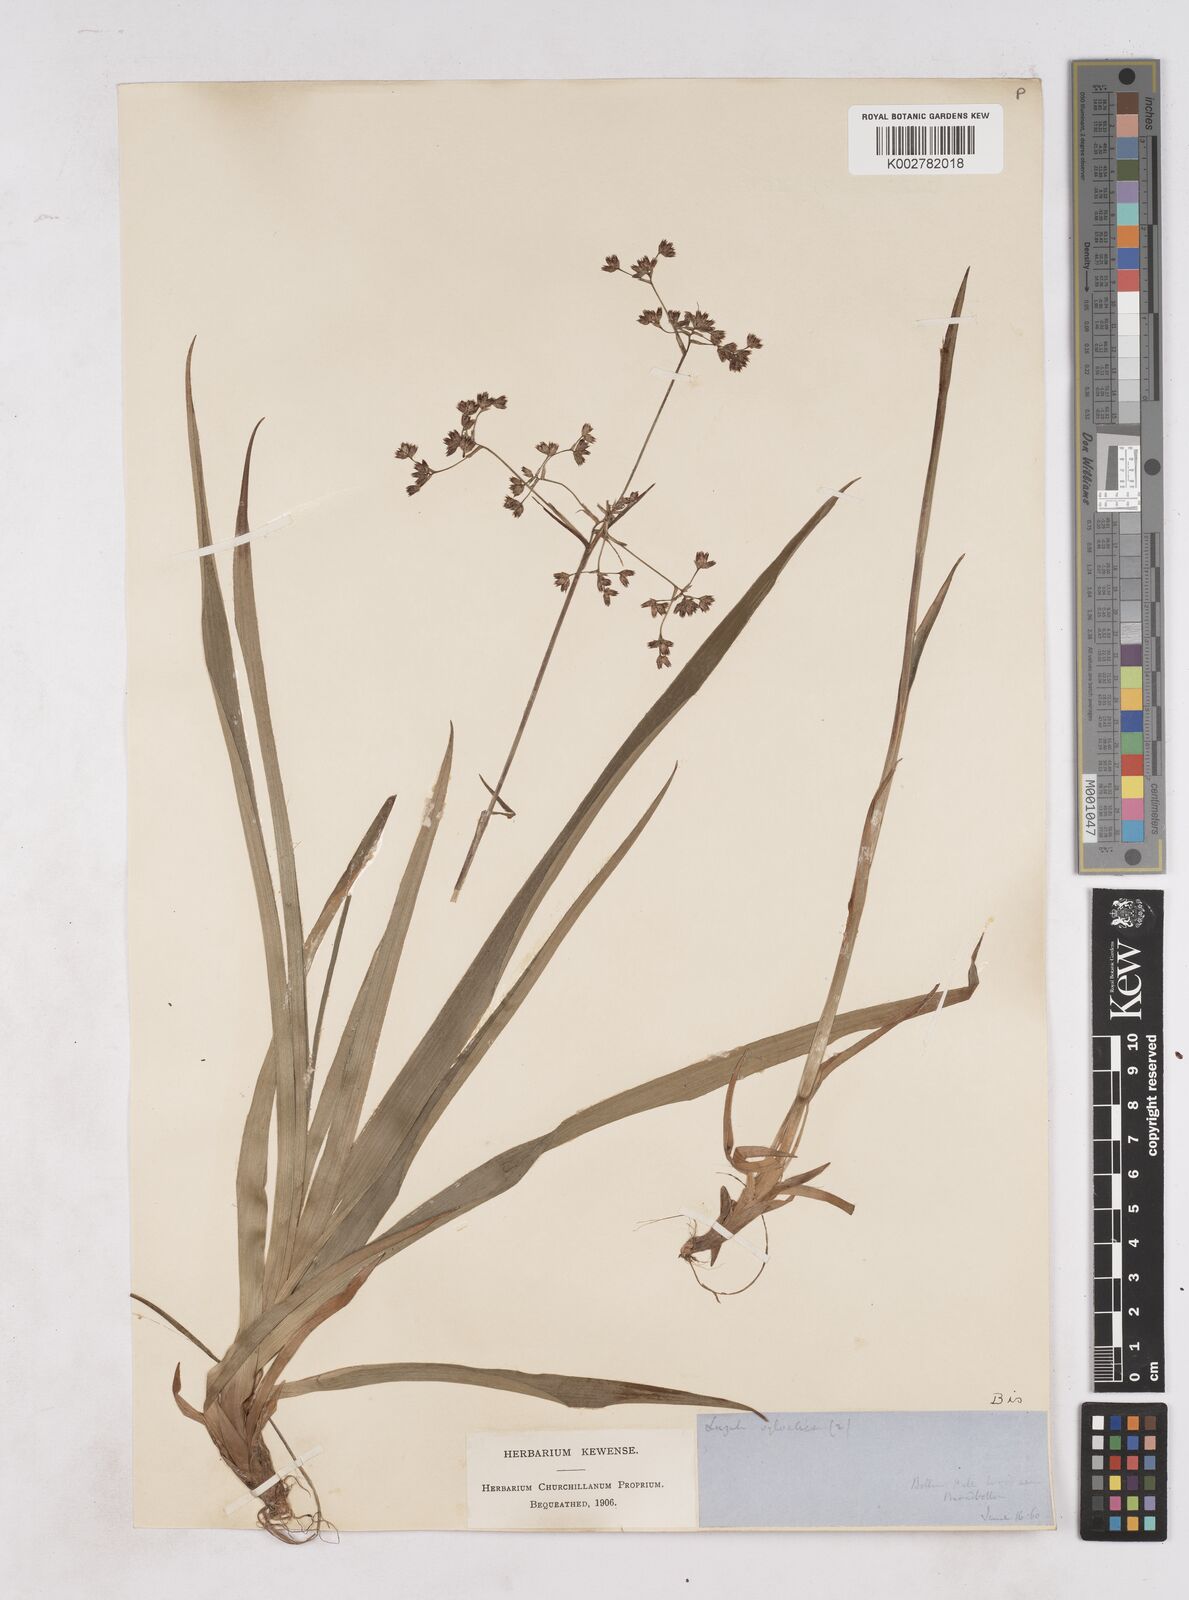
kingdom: Plantae
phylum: Tracheophyta
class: Liliopsida
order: Poales
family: Juncaceae
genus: Luzula
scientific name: Luzula sylvatica
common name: Great wood-rush
